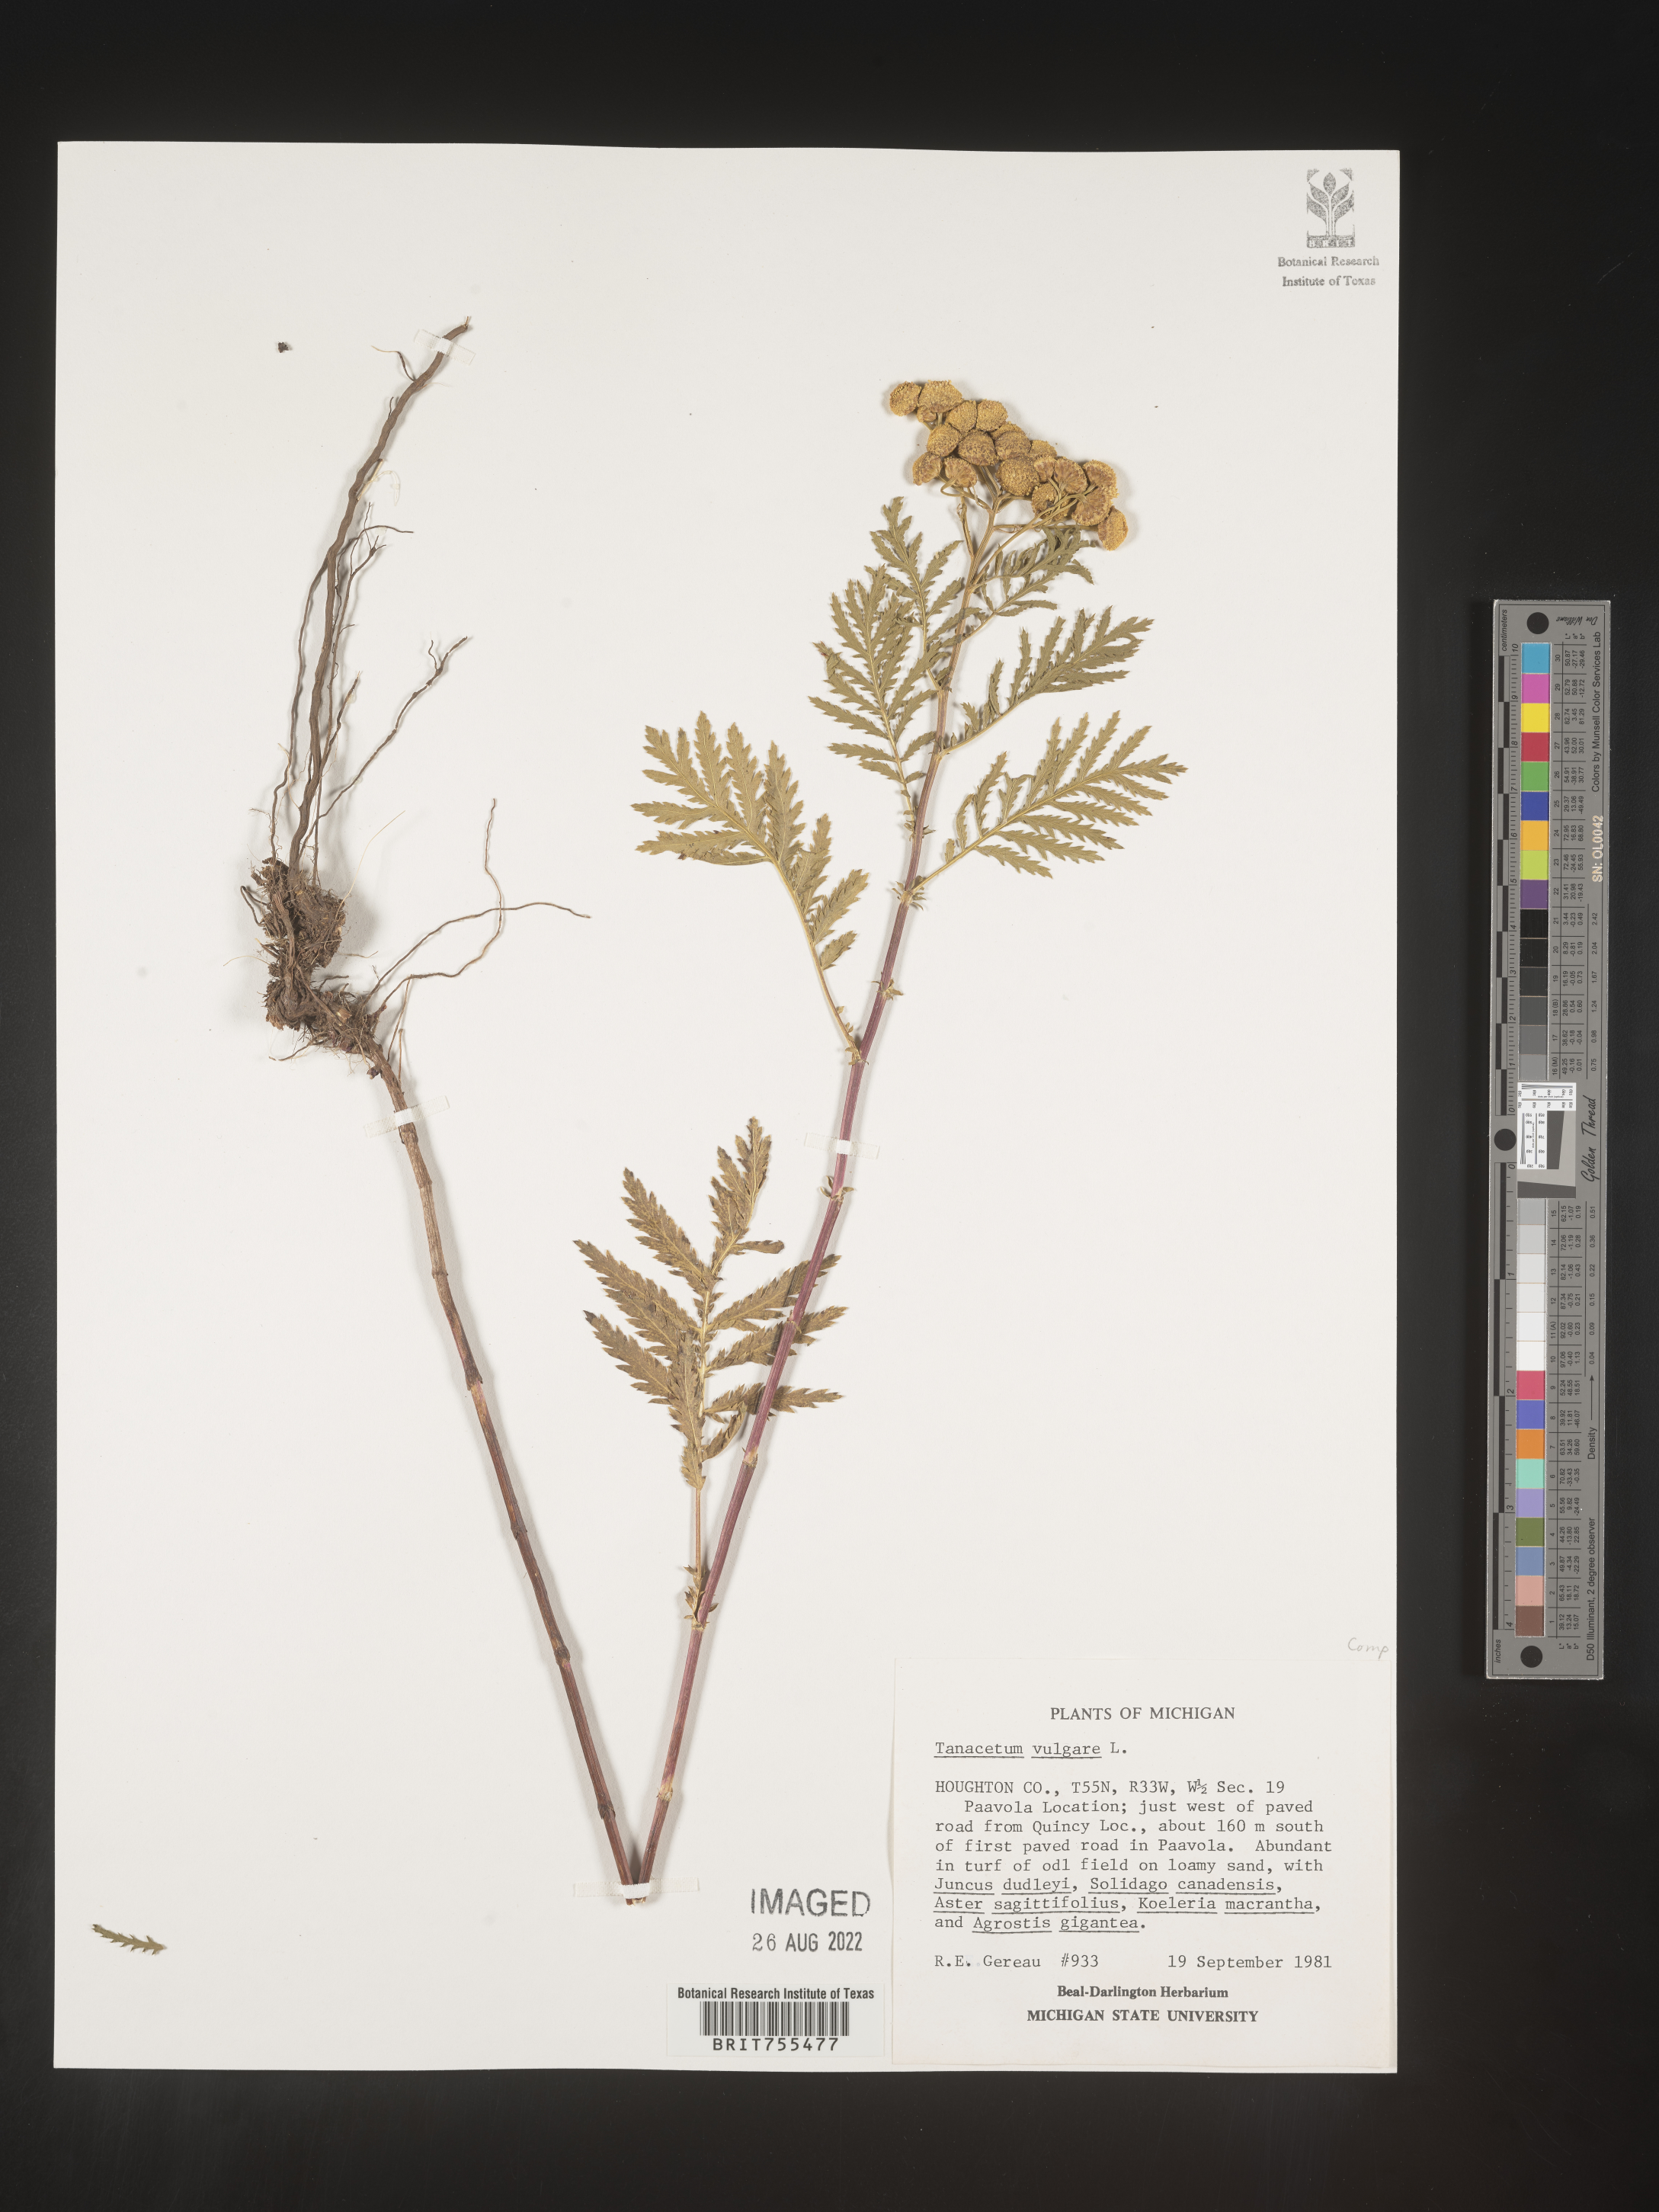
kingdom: Plantae
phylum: Tracheophyta
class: Magnoliopsida
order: Asterales
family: Asteraceae
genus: Tanacetum
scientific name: Tanacetum vulgare
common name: Common tansy
